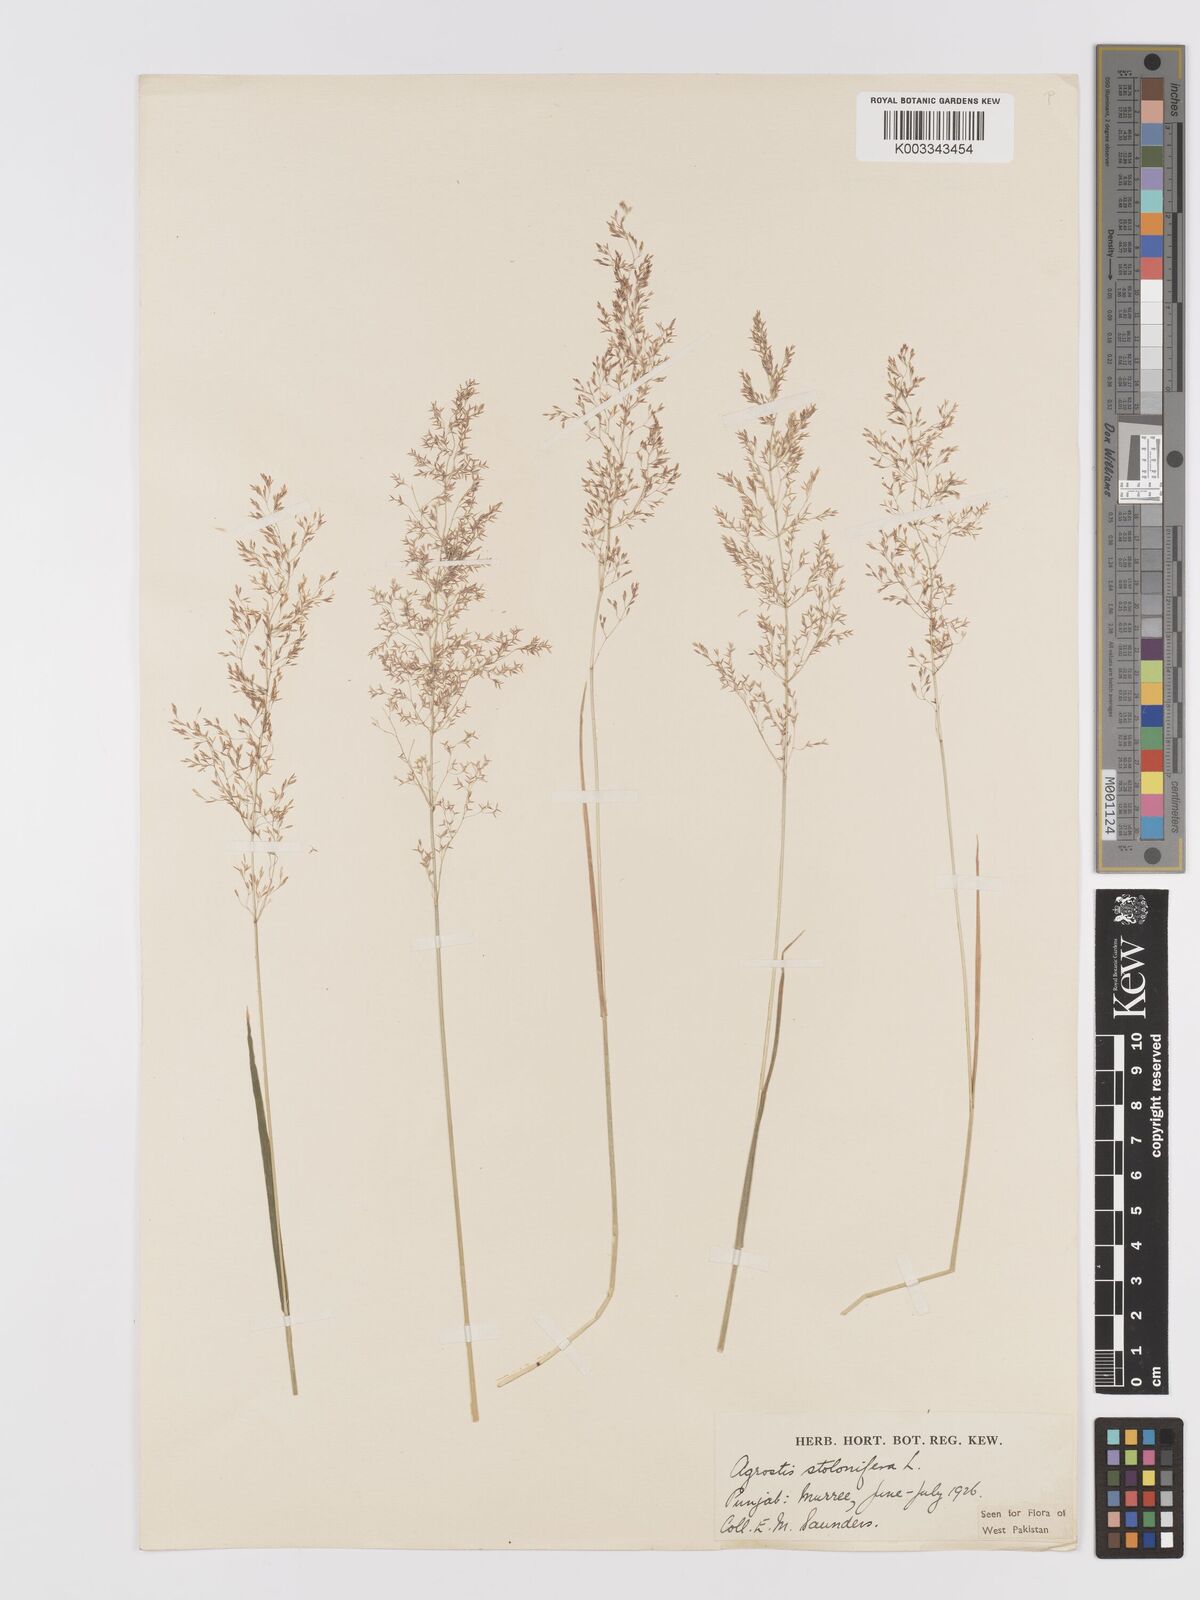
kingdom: Plantae
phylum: Tracheophyta
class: Liliopsida
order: Poales
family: Poaceae
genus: Agrostis
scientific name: Agrostis stolonifera
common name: Creeping bentgrass
